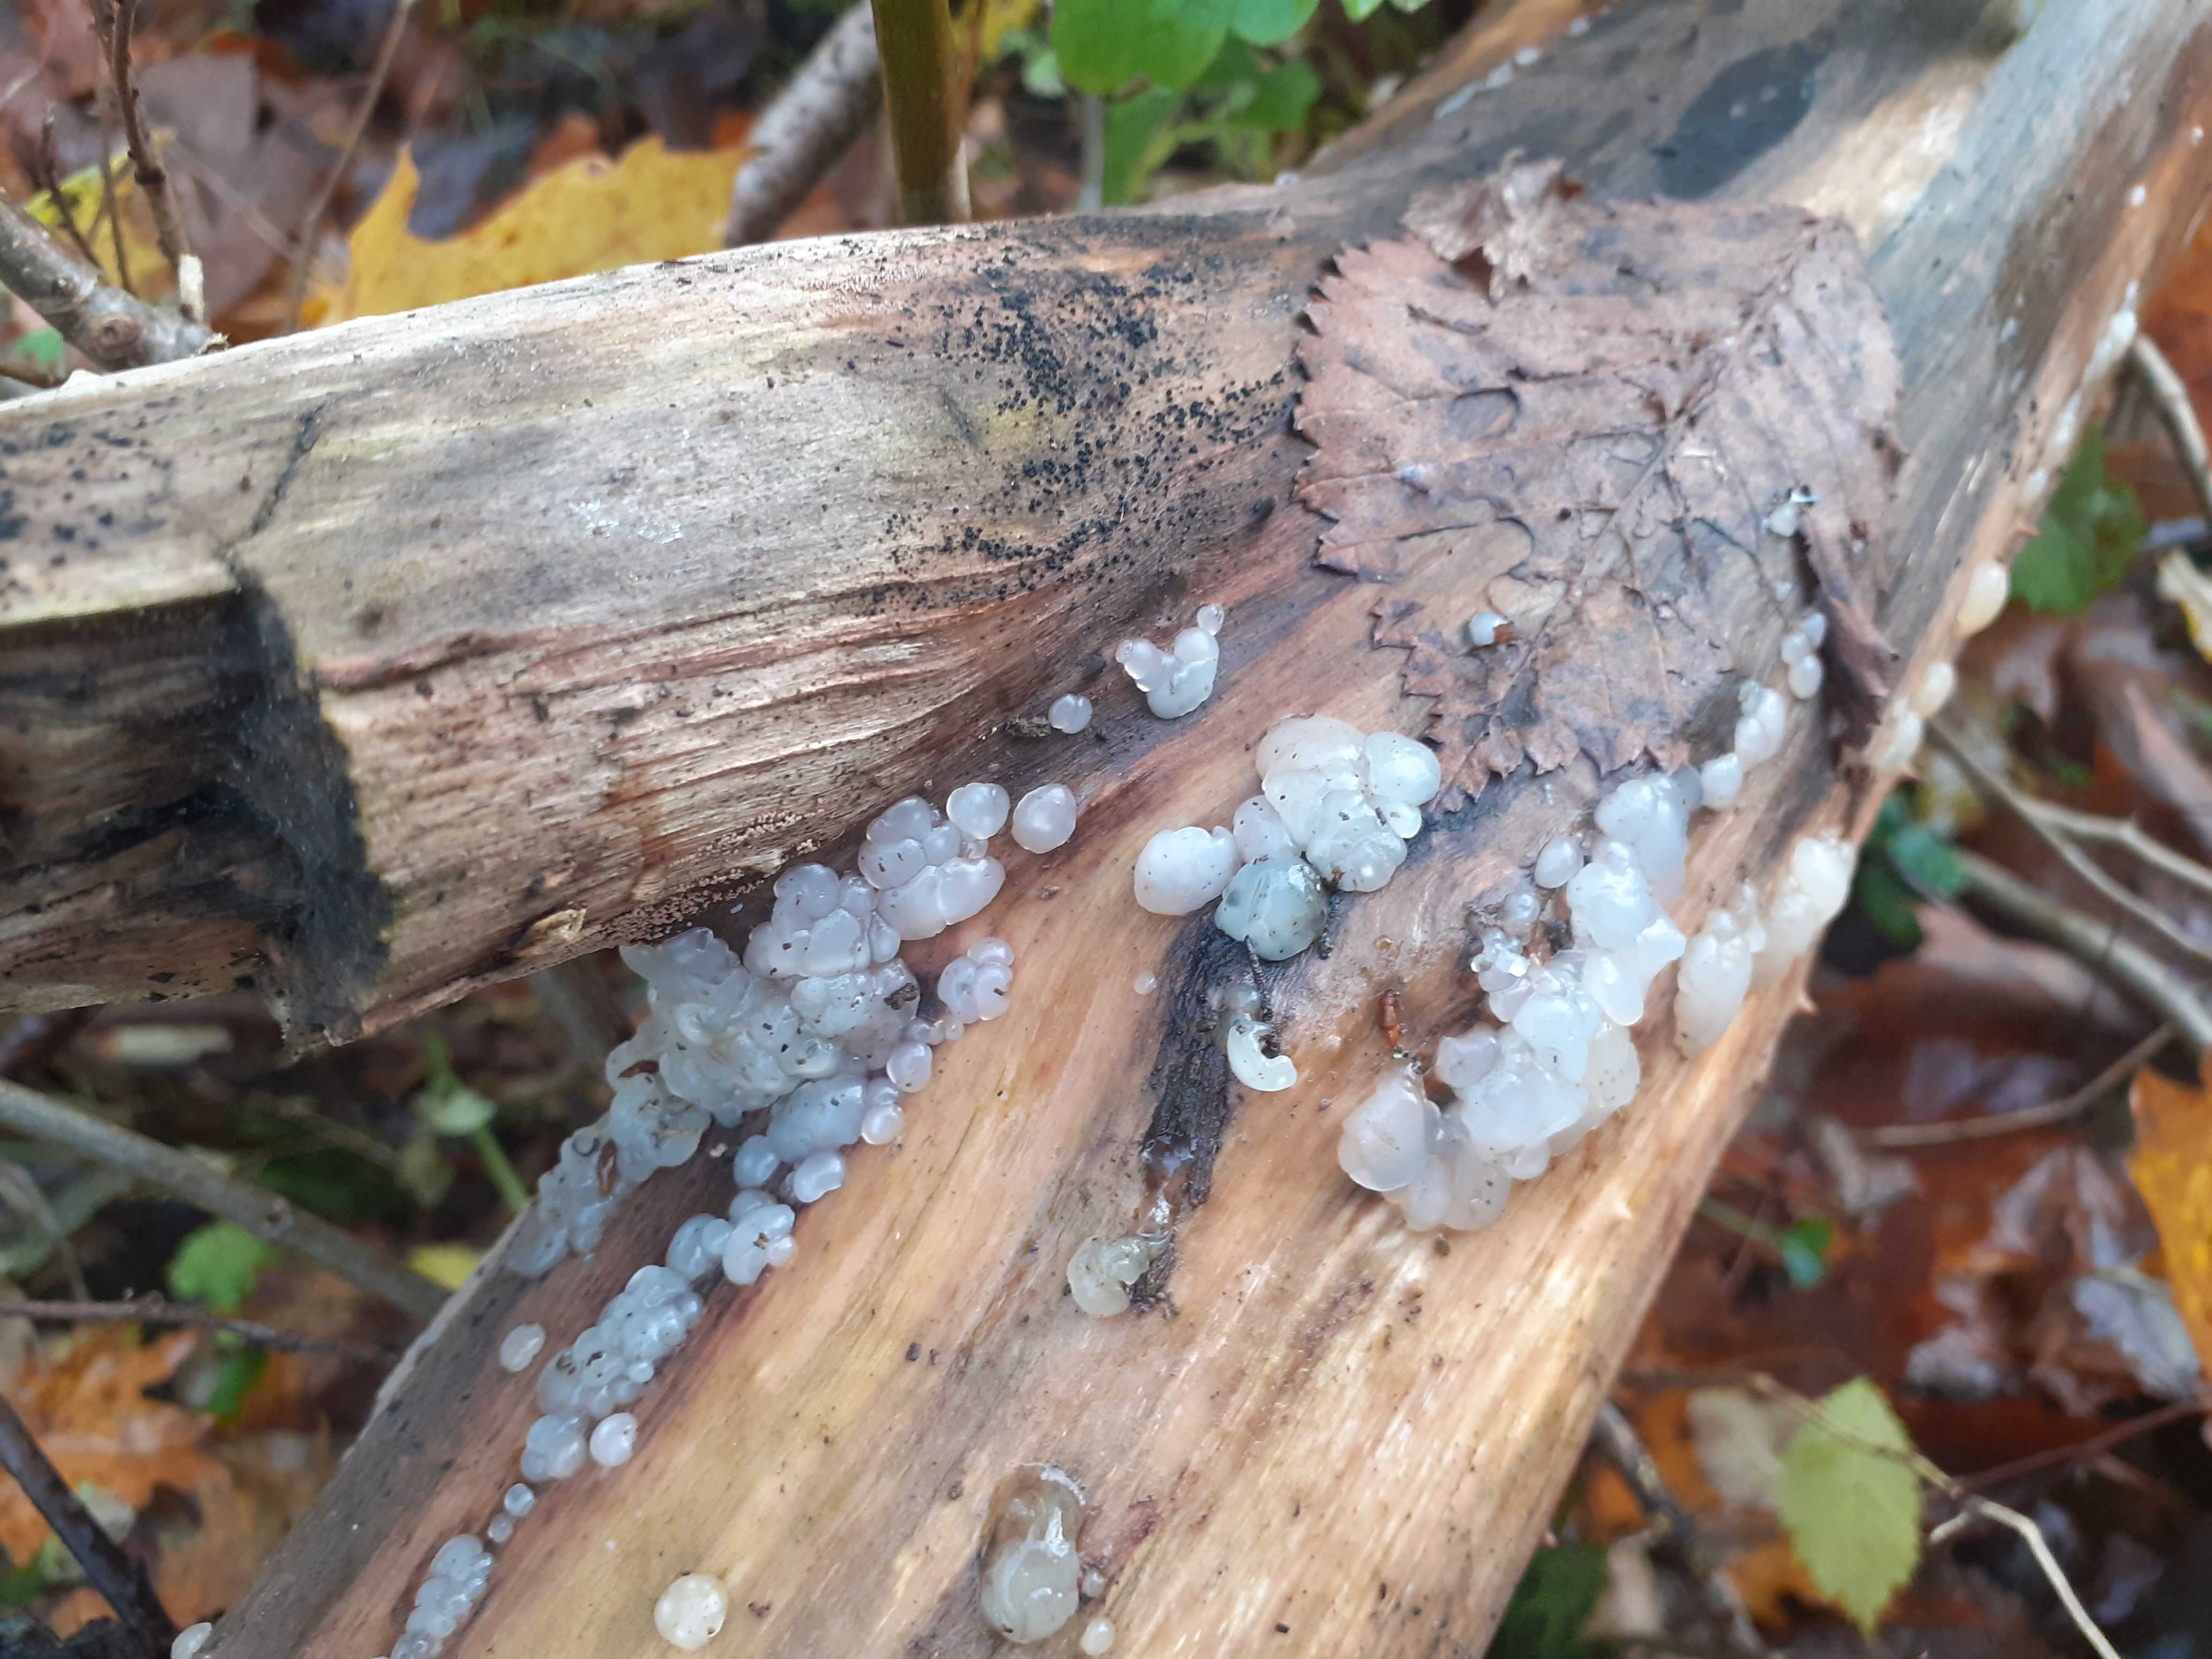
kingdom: Fungi
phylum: Basidiomycota
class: Agaricomycetes
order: Auriculariales
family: Hyaloriaceae
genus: Myxarium
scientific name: Myxarium nucleatum
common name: klar bævretop
